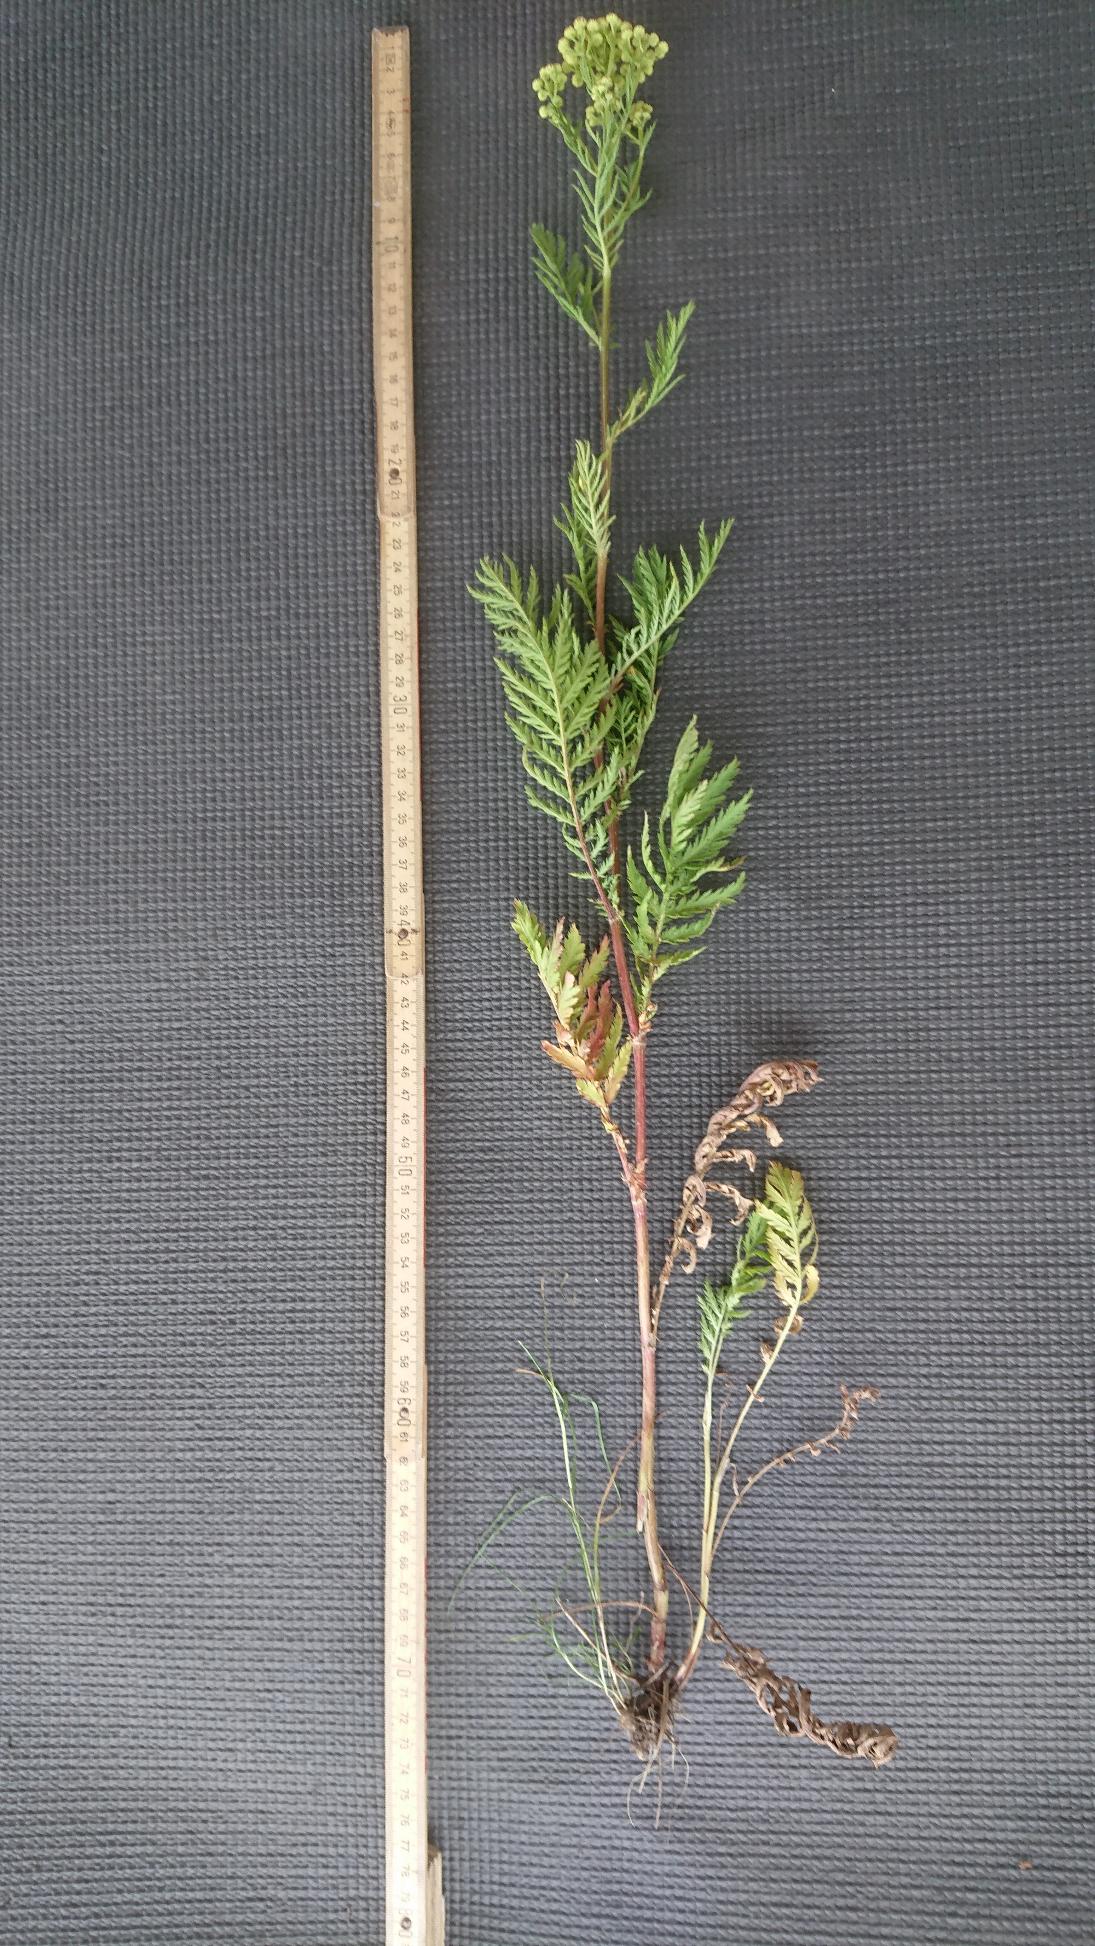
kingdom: Plantae
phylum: Tracheophyta
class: Magnoliopsida
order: Asterales
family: Asteraceae
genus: Tanacetum
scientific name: Tanacetum vulgare
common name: Rejnfan
